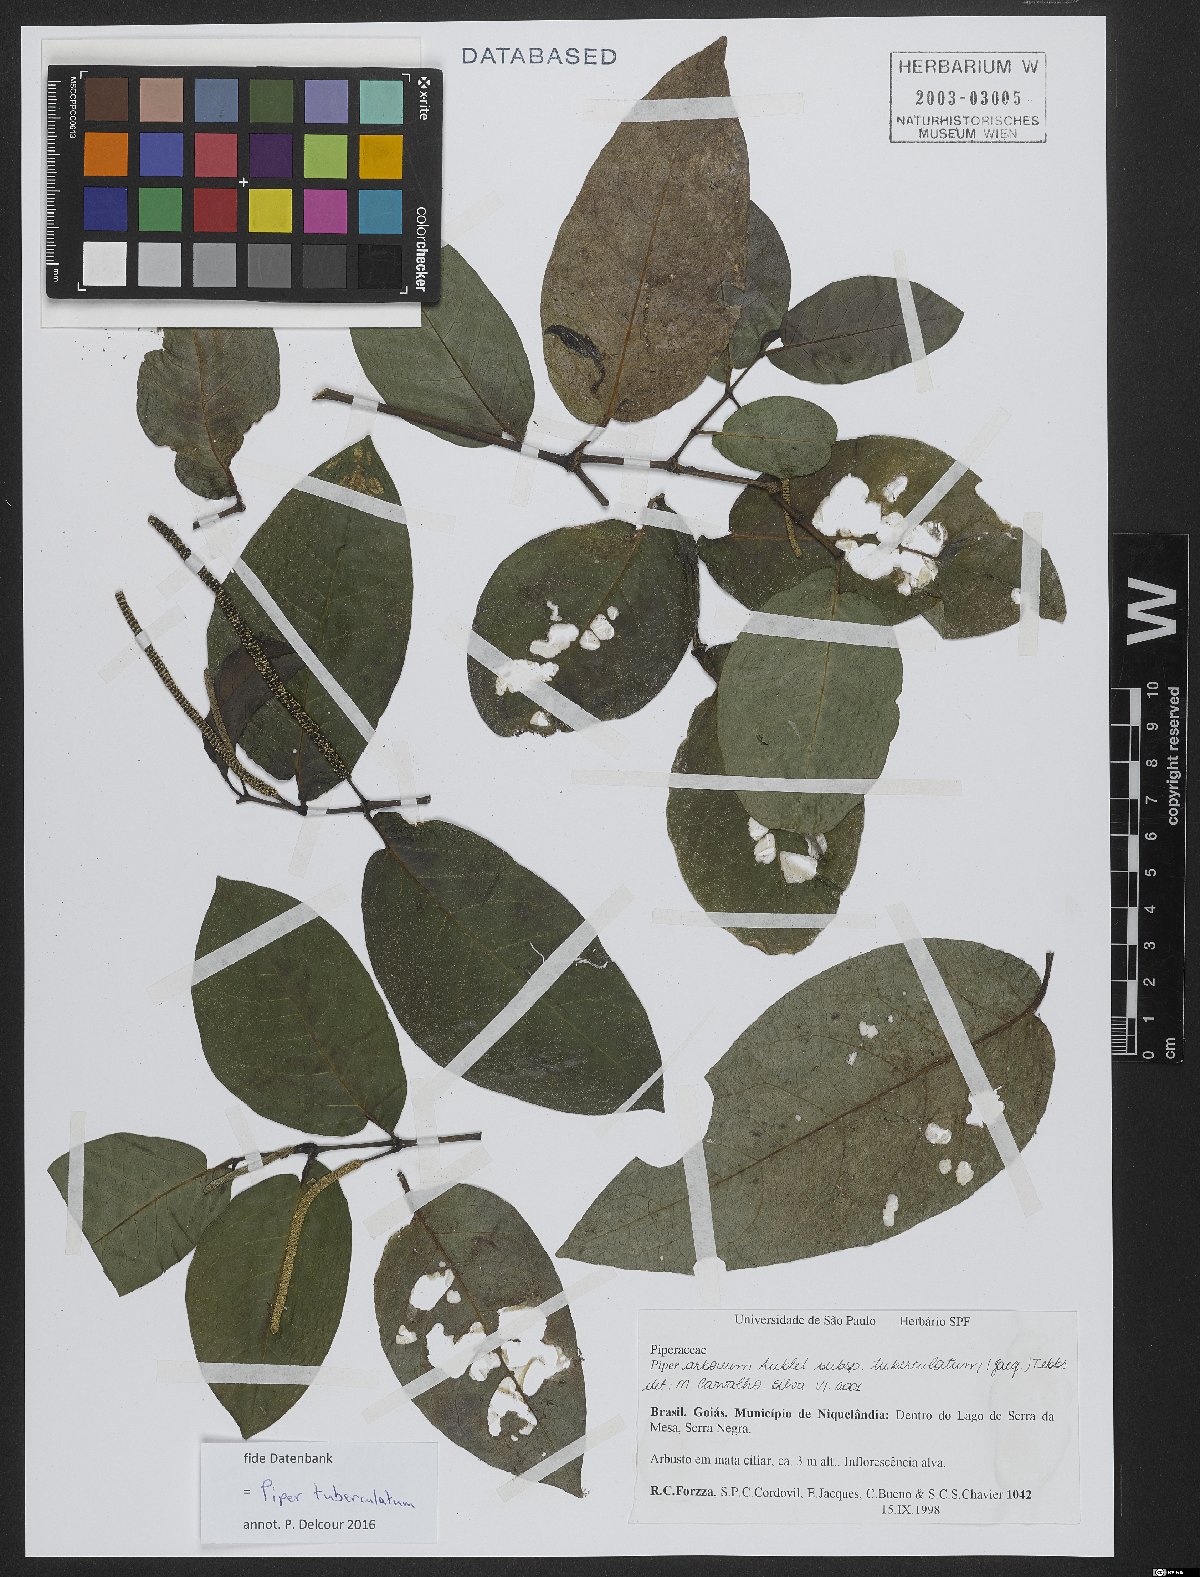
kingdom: Plantae
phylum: Tracheophyta
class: Magnoliopsida
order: Piperales
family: Piperaceae
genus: Piper
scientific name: Piper tuberculatum
